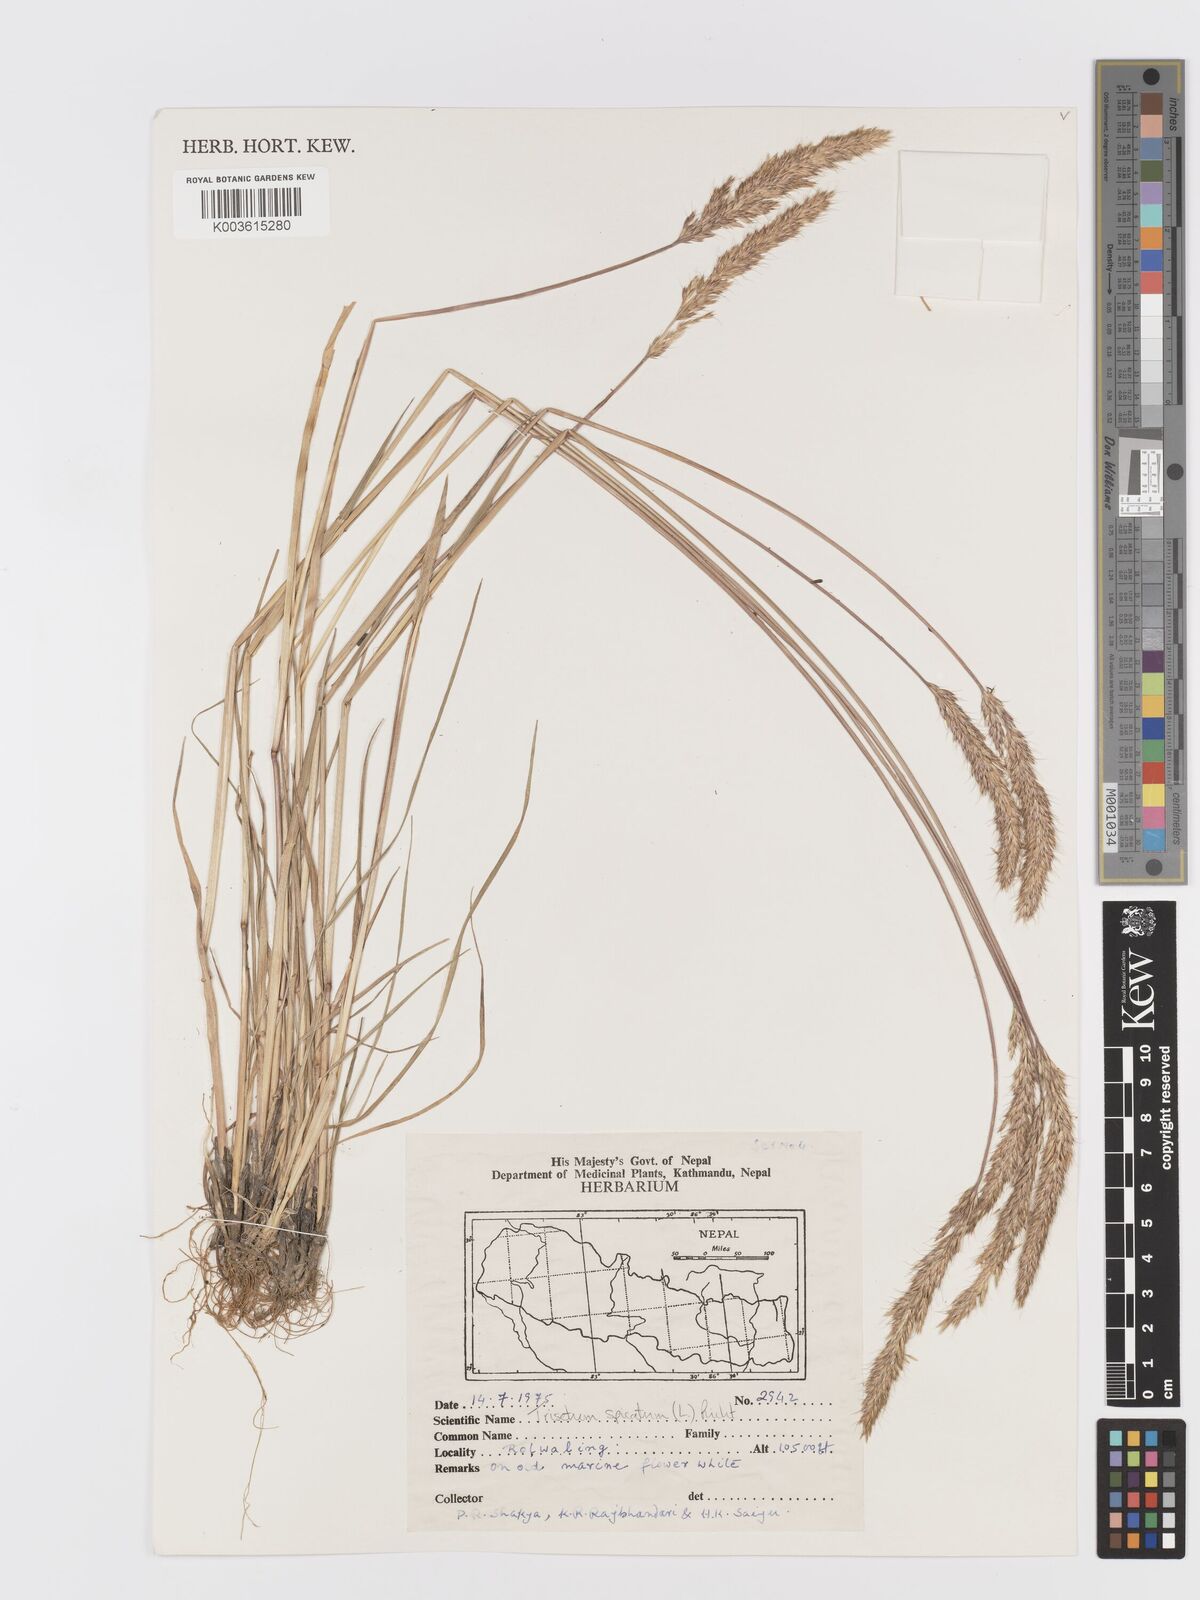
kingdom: Plantae
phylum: Tracheophyta
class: Liliopsida
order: Poales
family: Poaceae
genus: Koeleria
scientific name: Koeleria spicata
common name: Mountain trisetum
